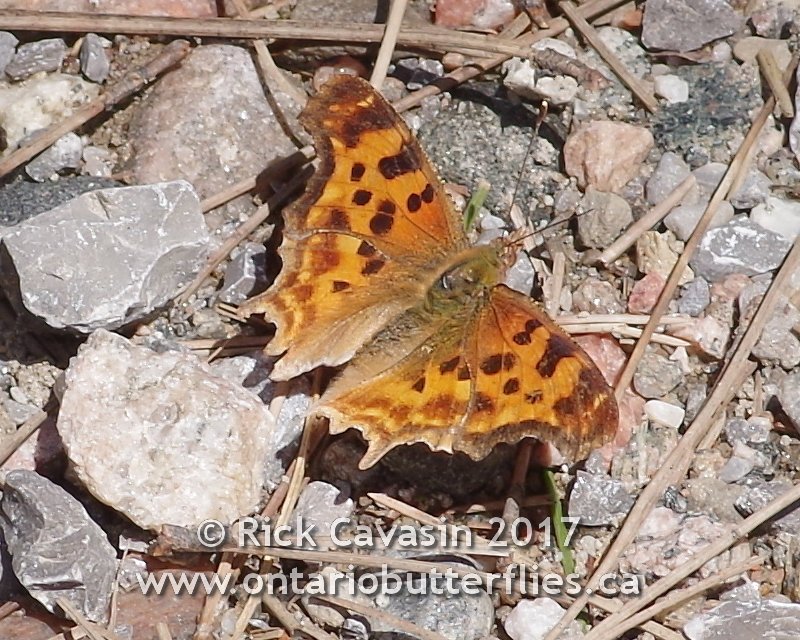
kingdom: Animalia
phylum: Arthropoda
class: Insecta
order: Lepidoptera
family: Nymphalidae
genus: Polygonia
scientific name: Polygonia satyrus
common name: Satyr Comma
